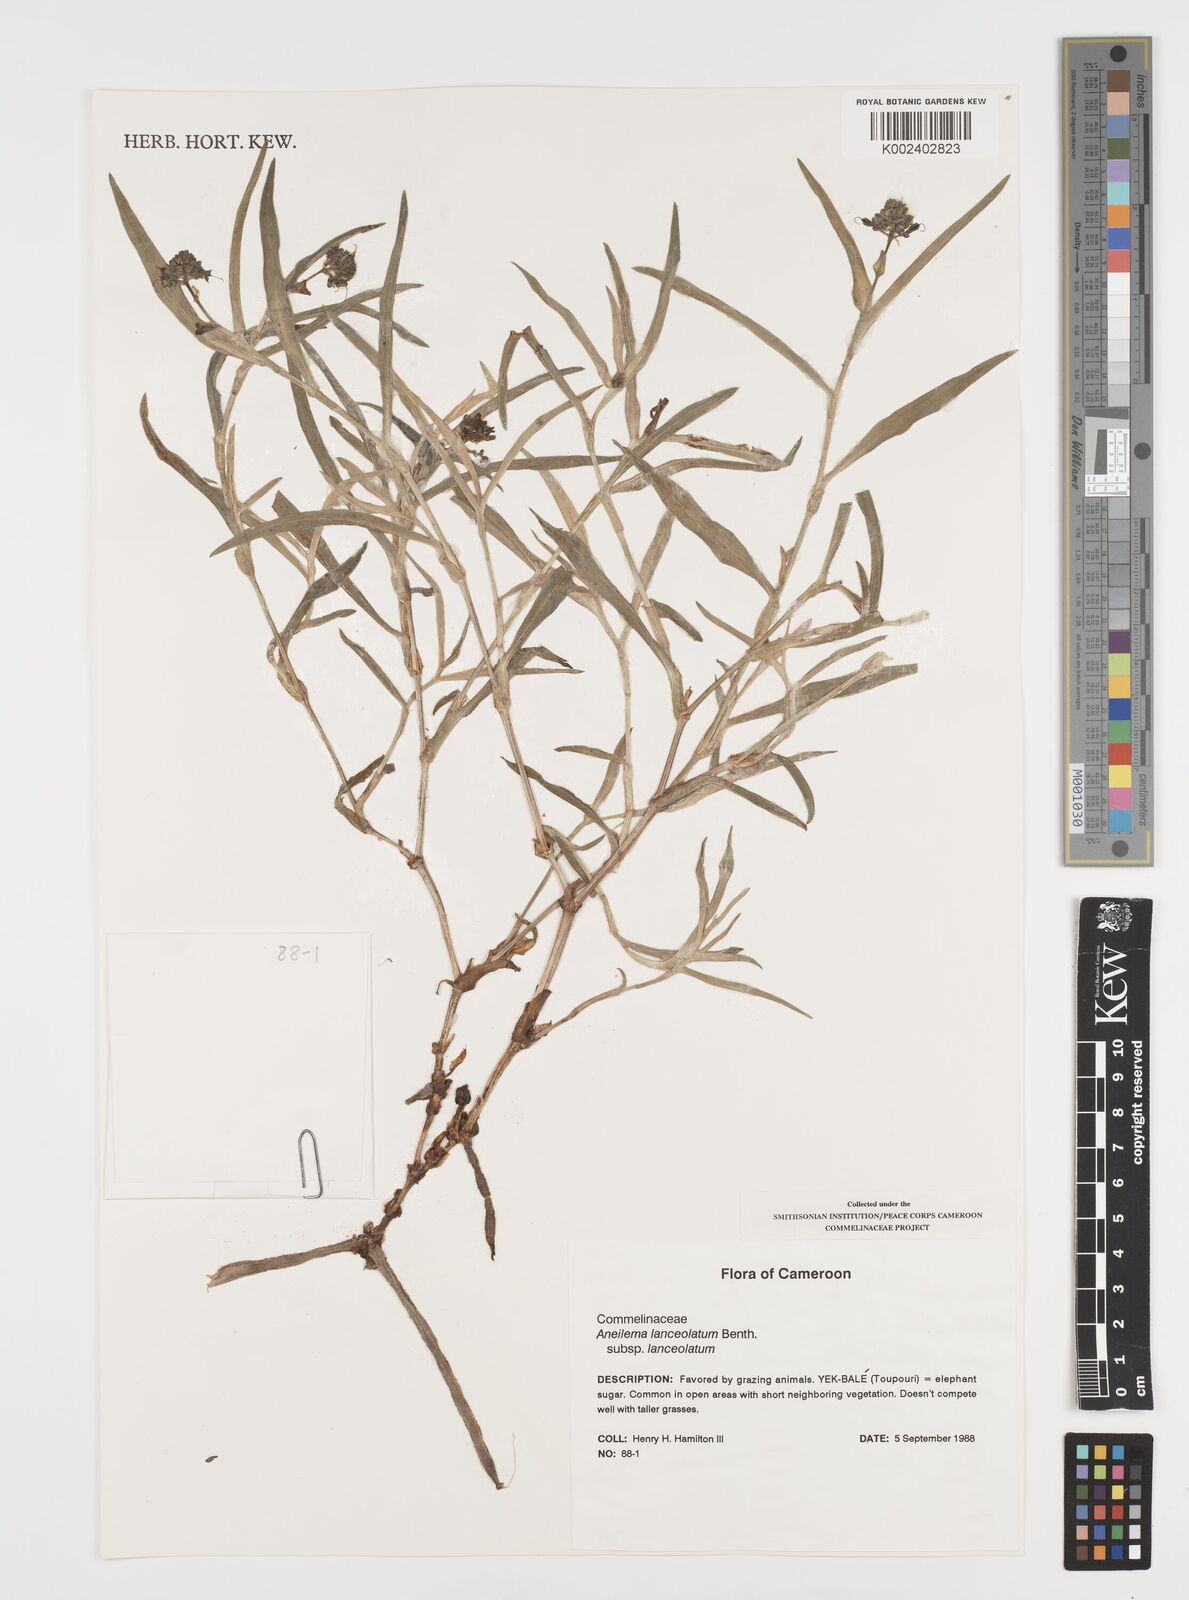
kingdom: Plantae
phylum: Tracheophyta
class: Liliopsida
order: Commelinales
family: Commelinaceae
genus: Aneilema
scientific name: Aneilema lanceolatum
